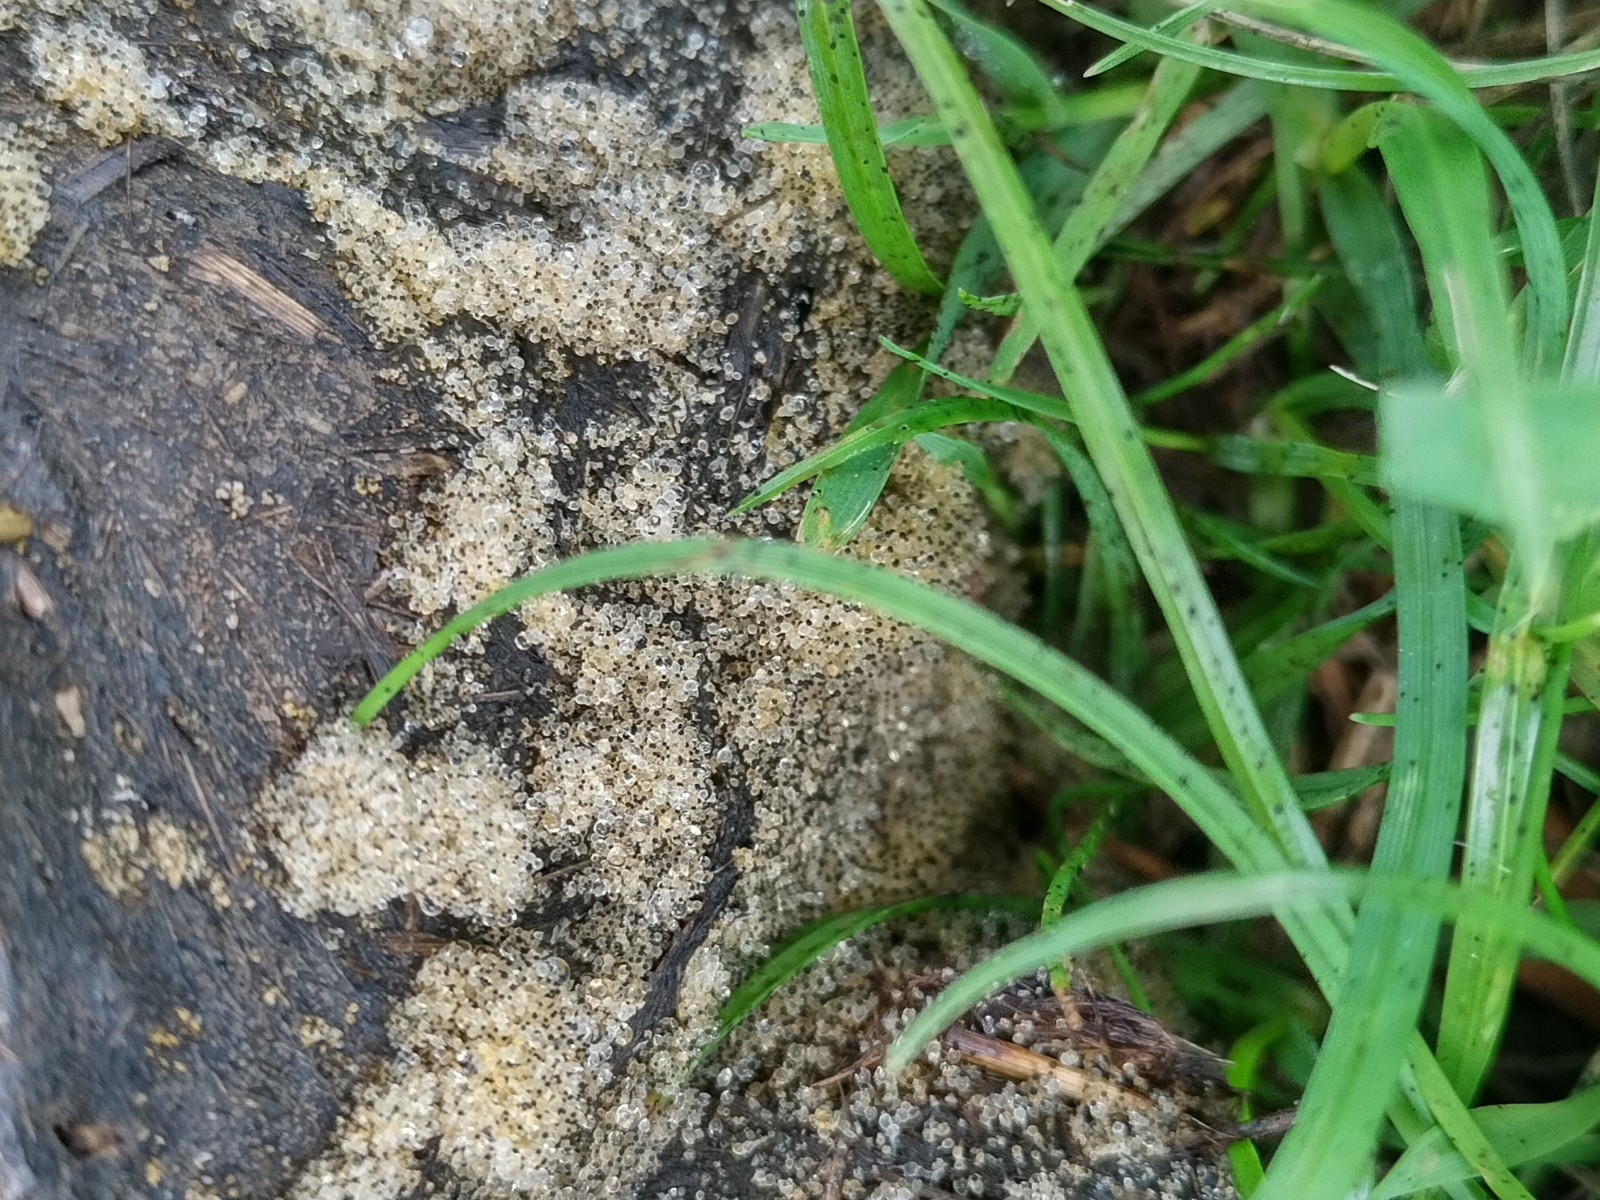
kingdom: Fungi
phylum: Mucoromycota
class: Mucoromycetes
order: Mucorales
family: Pilobolaceae
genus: Pilobolus
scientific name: Pilobolus
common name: boldkaster
